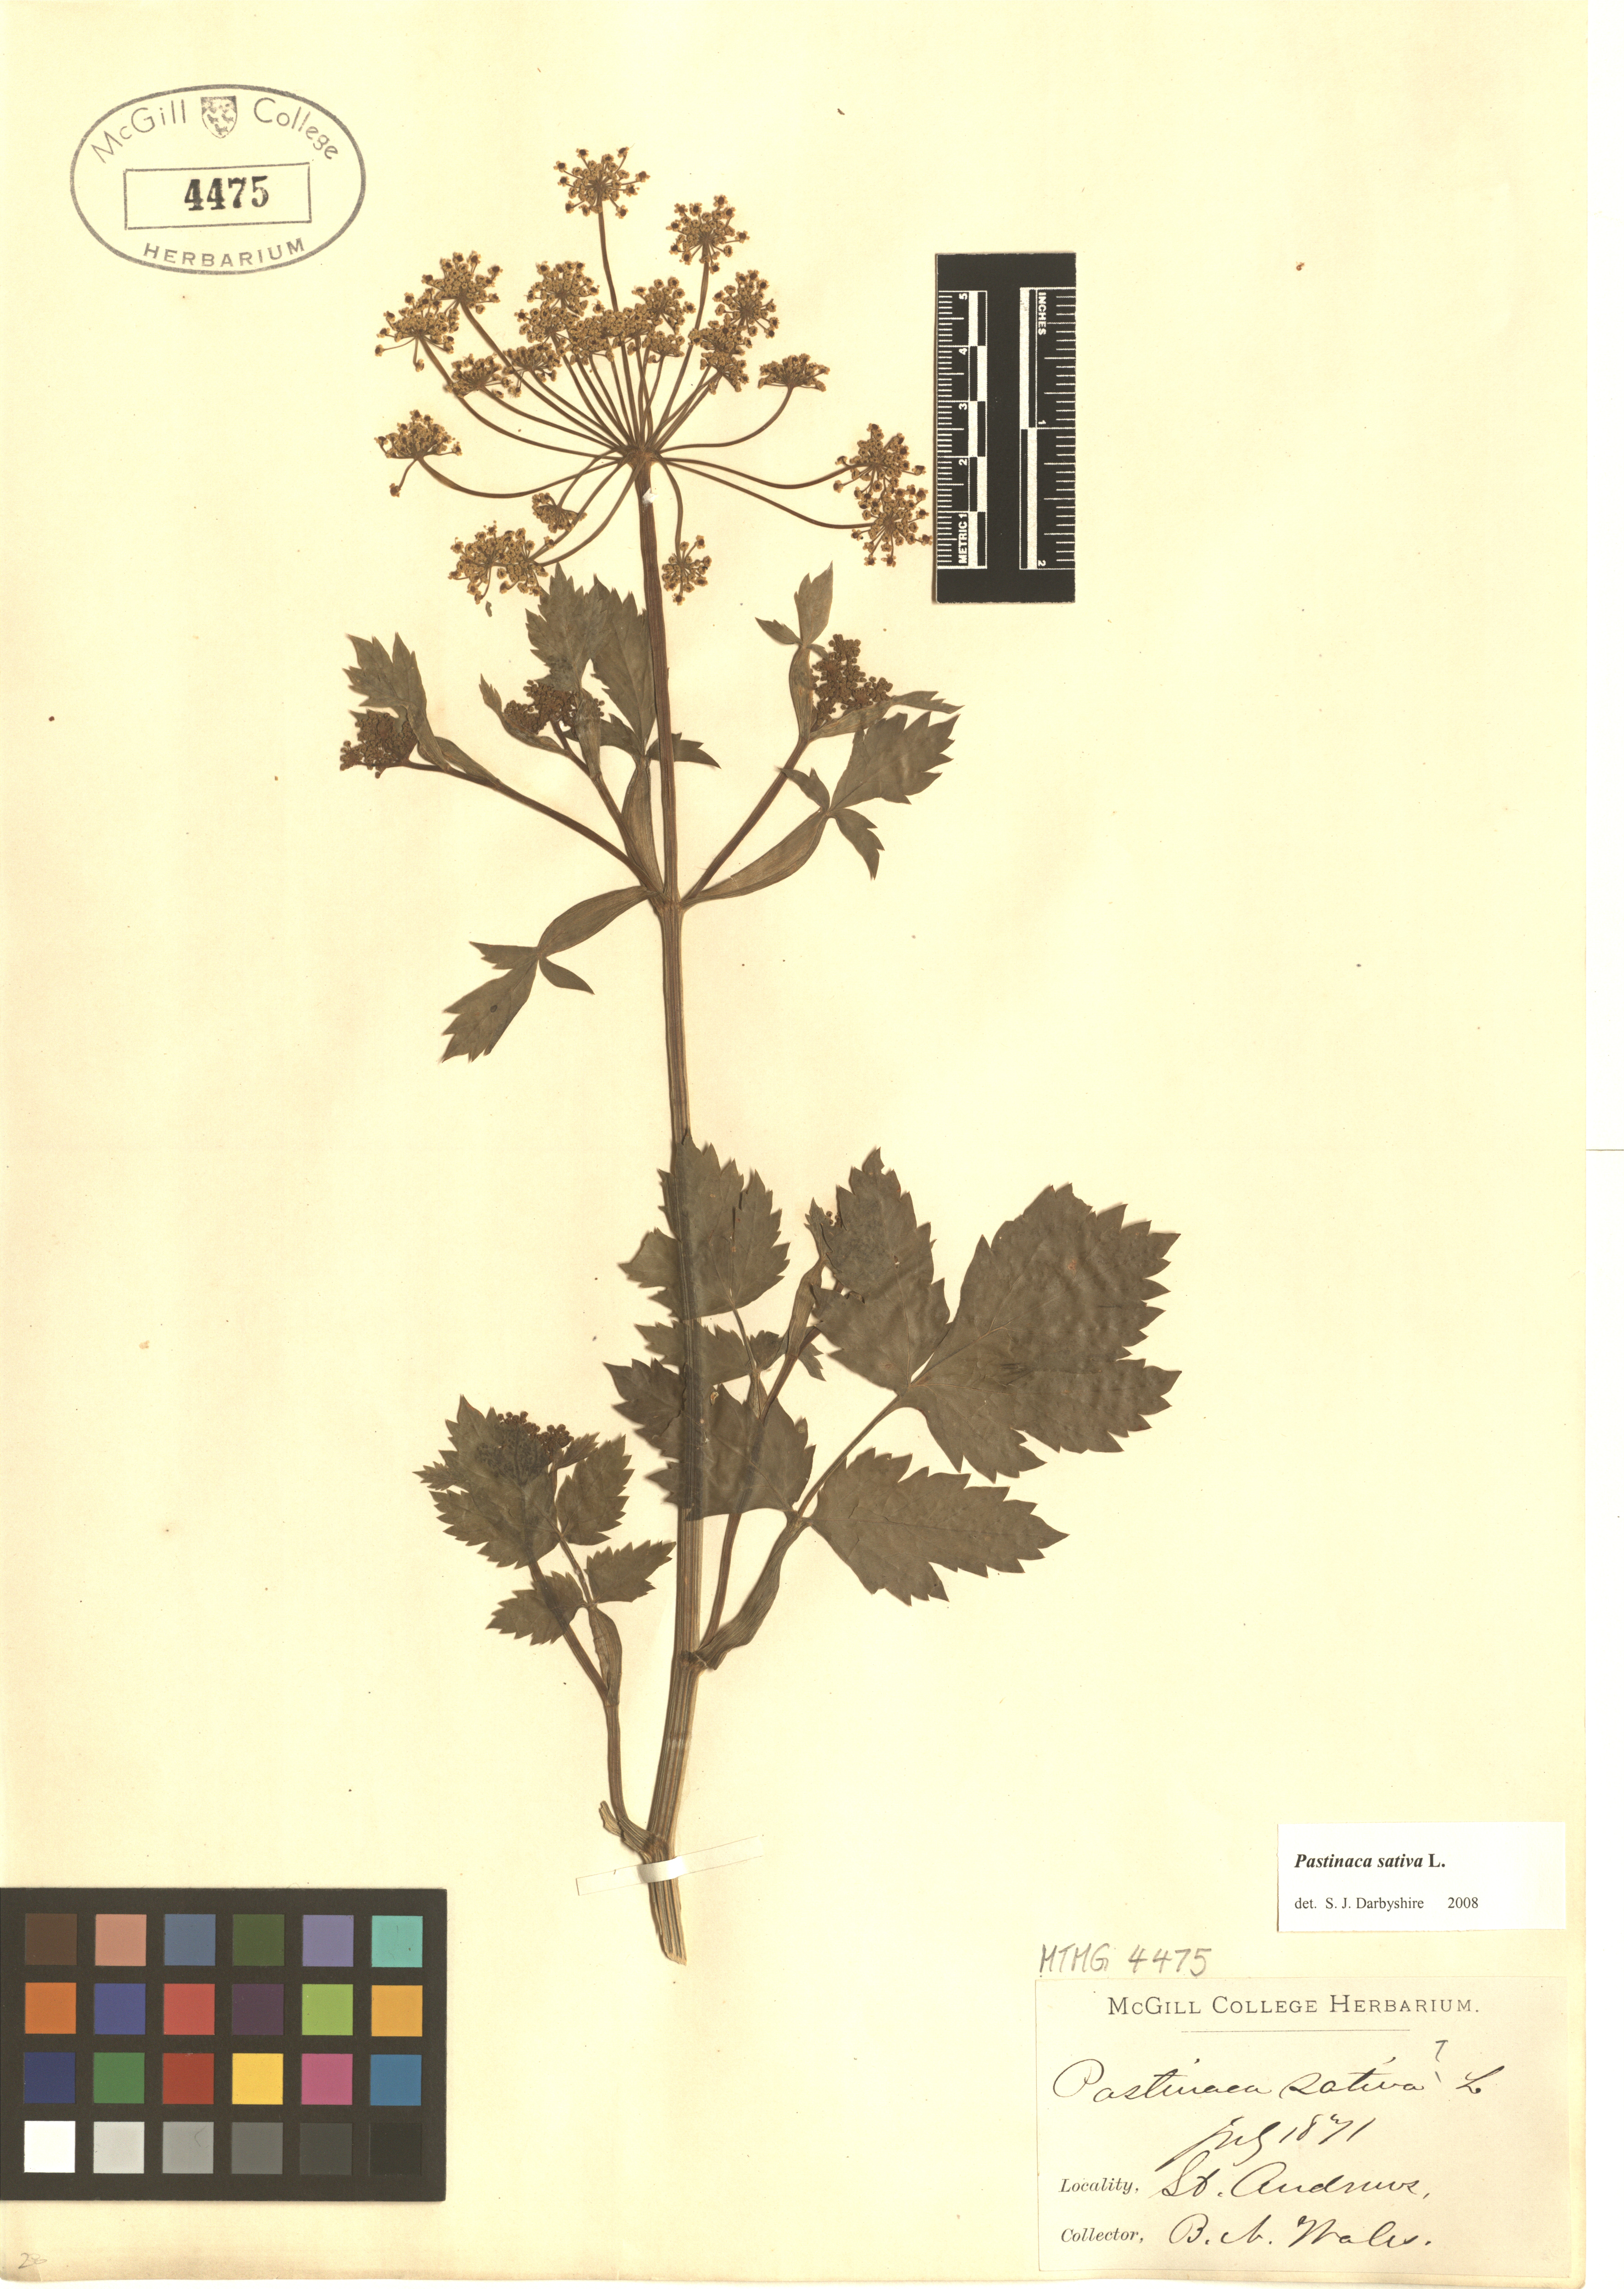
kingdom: Plantae
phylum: Tracheophyta
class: Magnoliopsida
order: Apiales
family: Apiaceae
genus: Pastinaca
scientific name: Pastinaca sativa
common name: Wild parsnip
